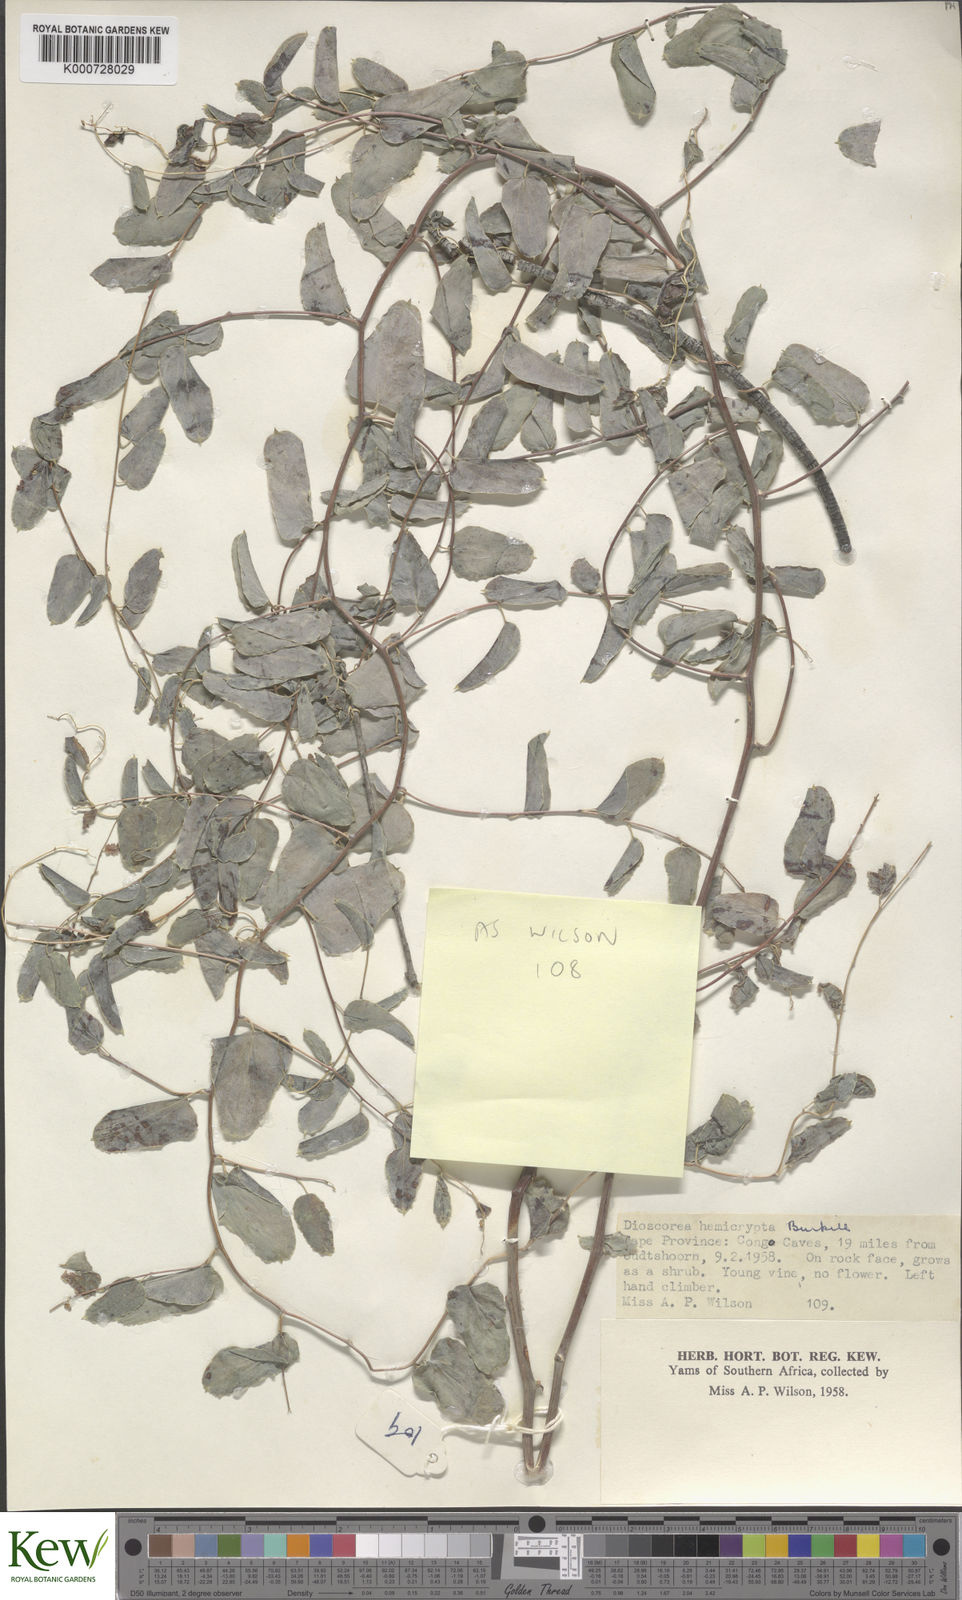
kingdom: Plantae
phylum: Tracheophyta
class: Liliopsida
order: Dioscoreales
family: Dioscoreaceae
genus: Dioscorea
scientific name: Dioscorea hemicrypta
